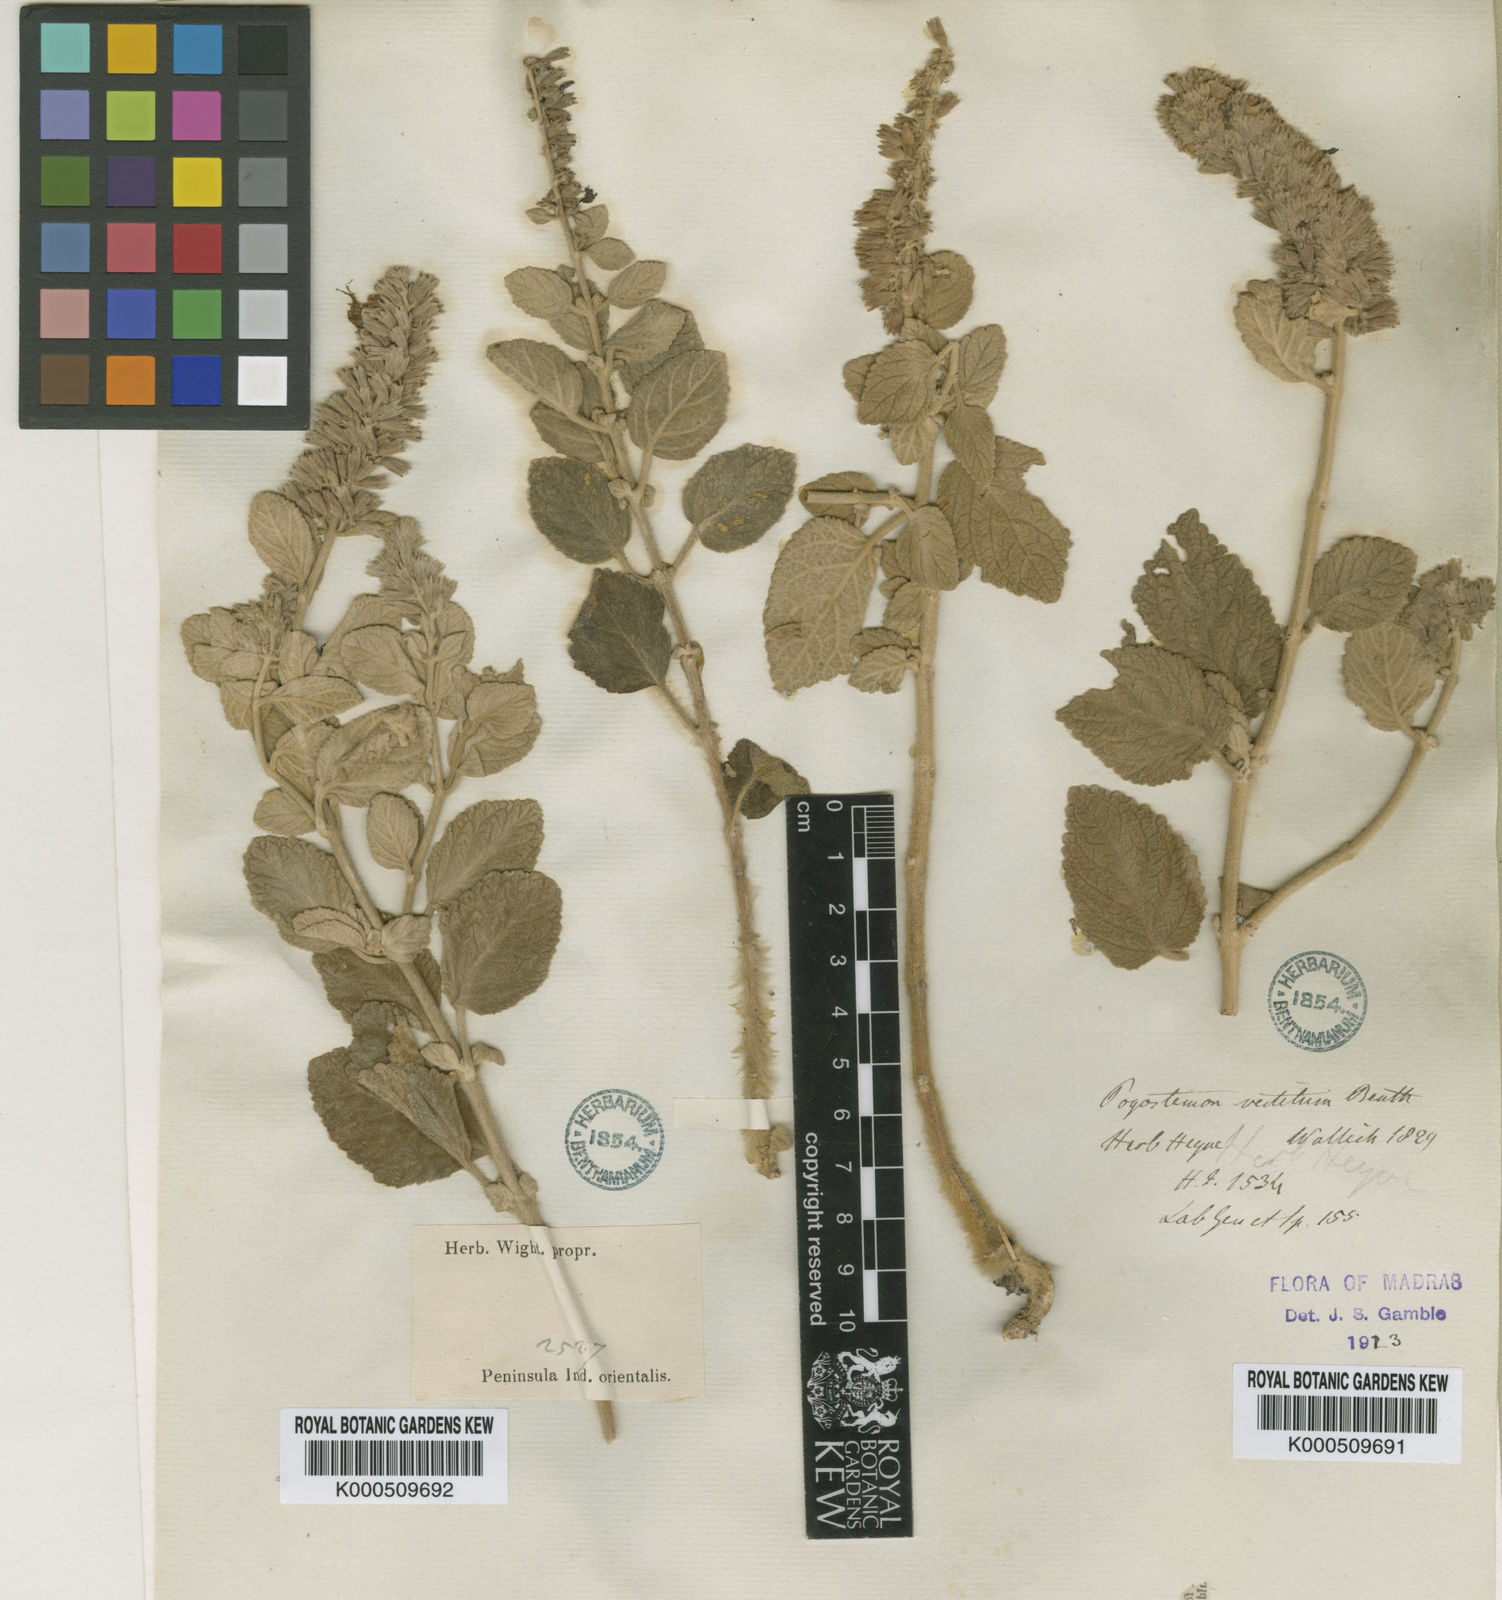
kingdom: Plantae
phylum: Tracheophyta
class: Magnoliopsida
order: Lamiales
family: Lamiaceae
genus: Pogostemon
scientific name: Pogostemon vestitus
